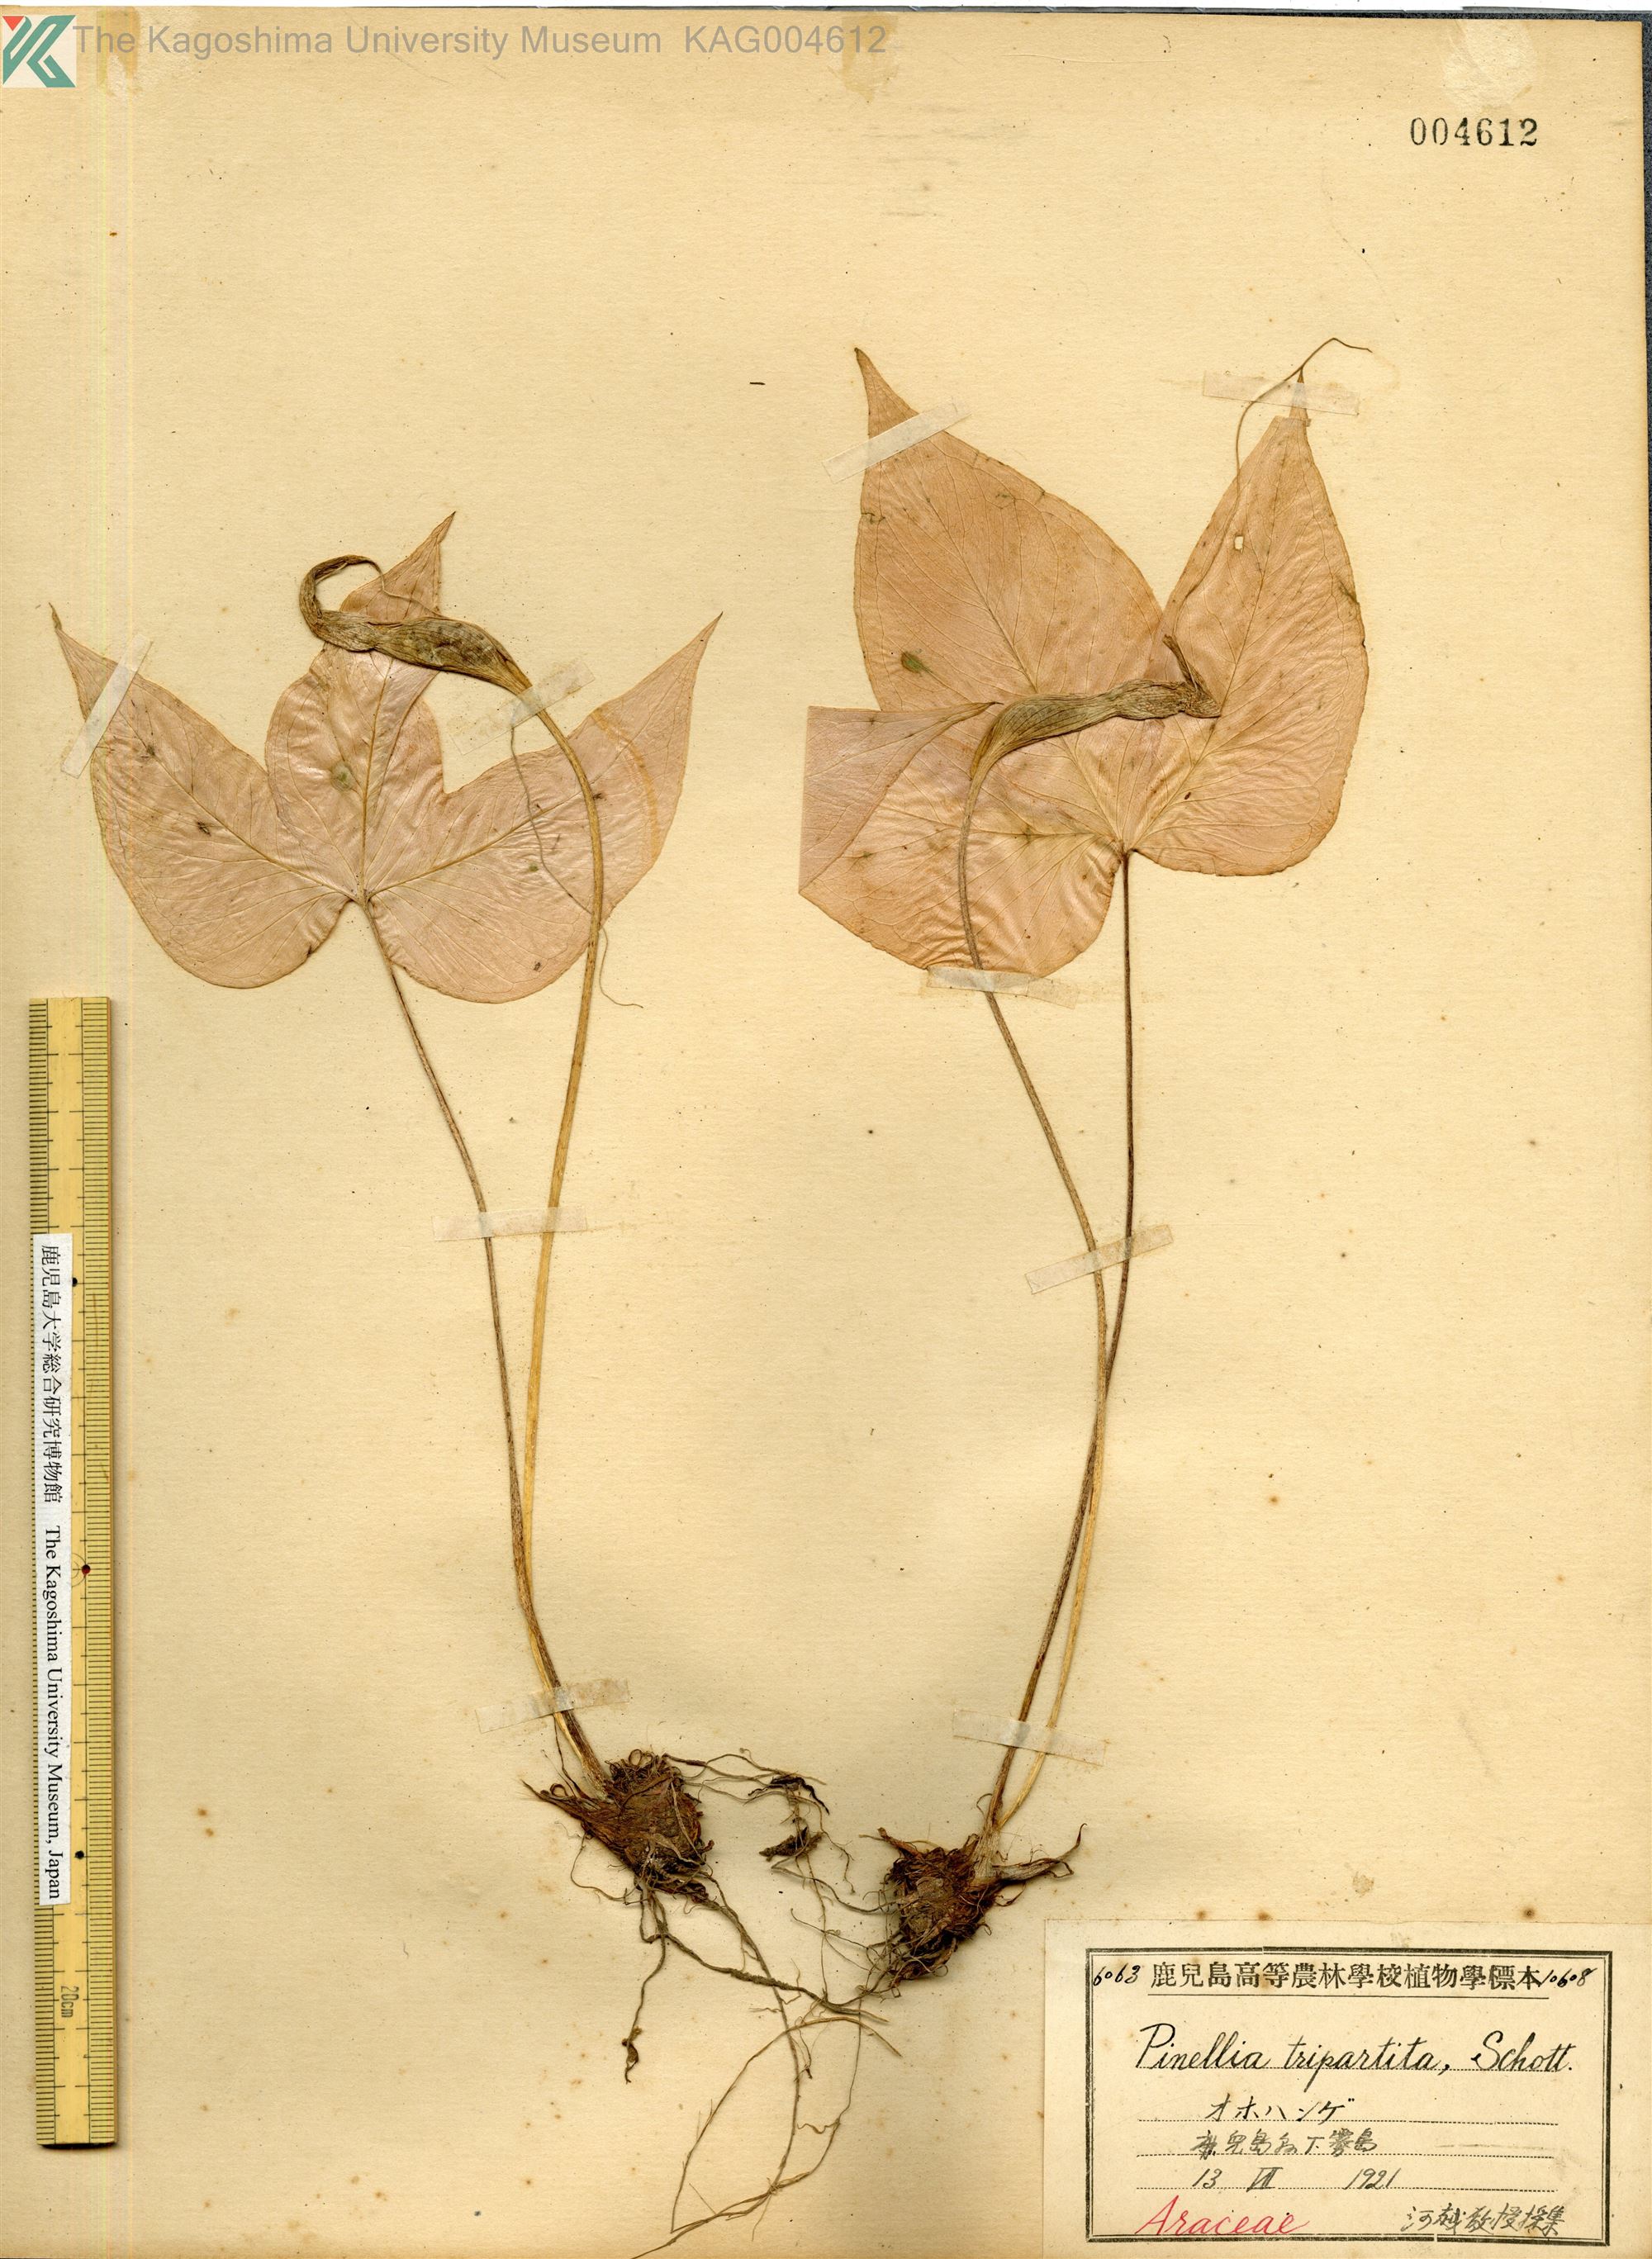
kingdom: Plantae
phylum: Tracheophyta
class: Liliopsida
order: Alismatales
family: Araceae
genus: Pinellia
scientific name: Pinellia tripartita
